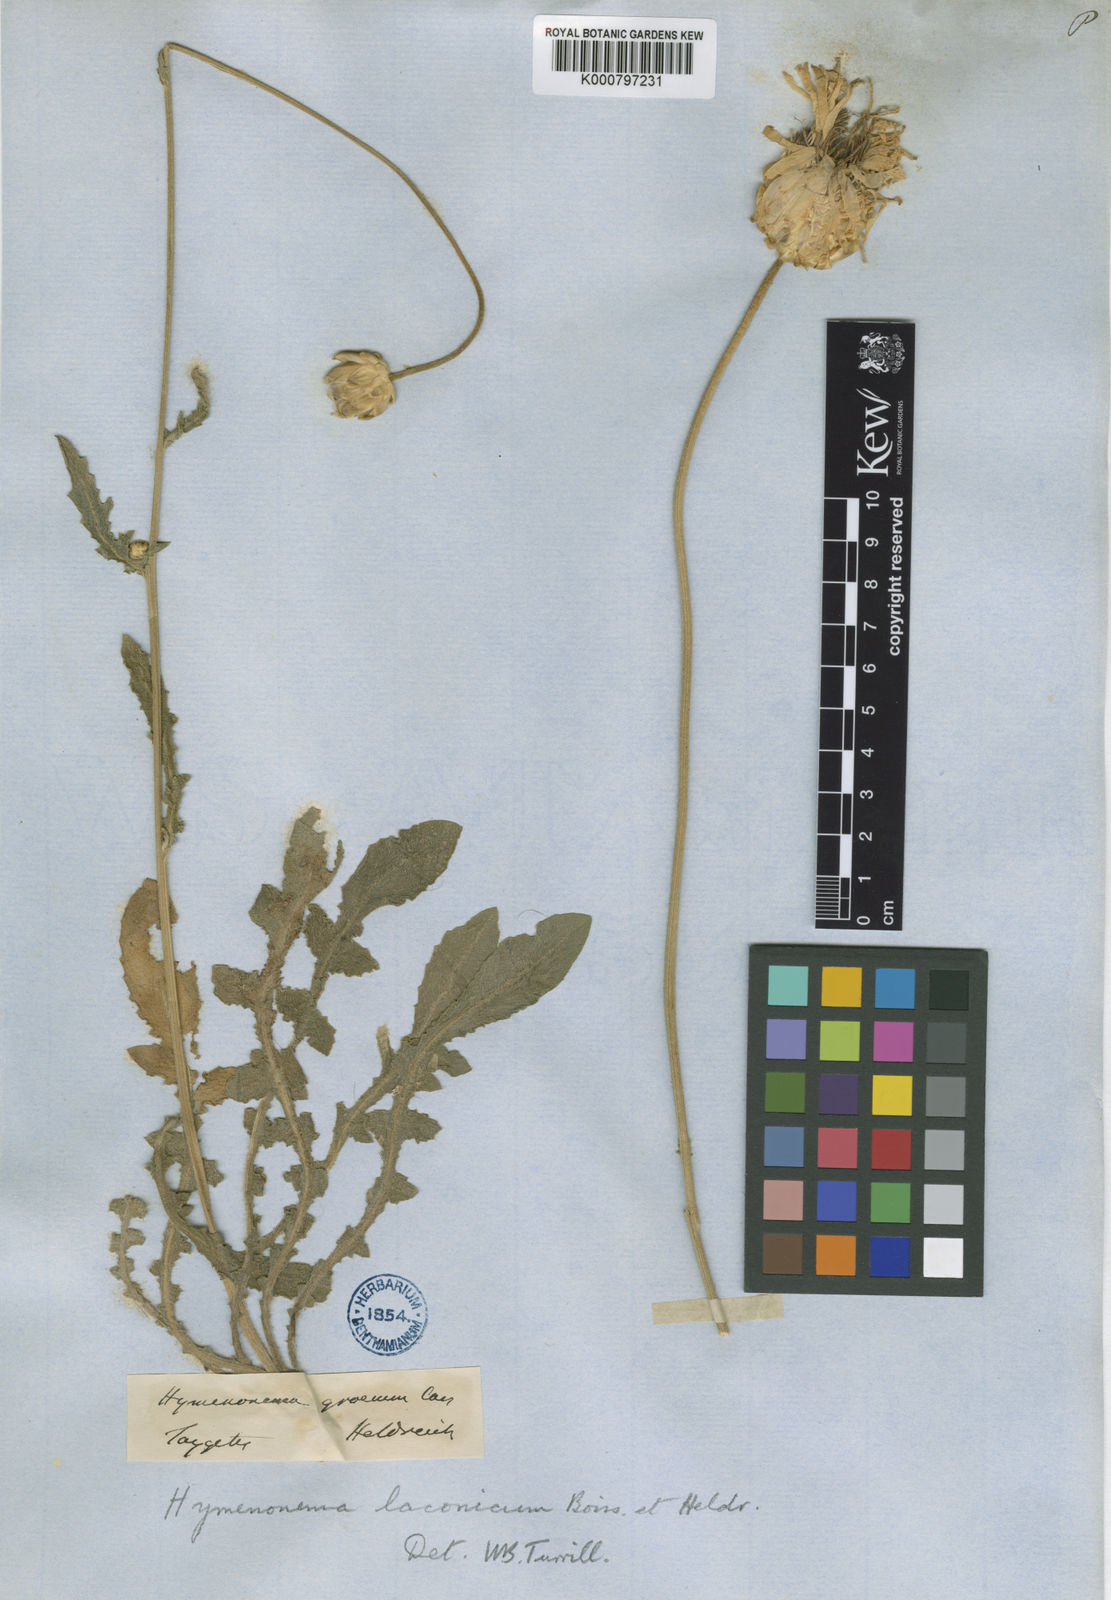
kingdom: Plantae
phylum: Tracheophyta
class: Magnoliopsida
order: Asterales
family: Asteraceae
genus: Hymenonema
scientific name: Hymenonema laconicum
